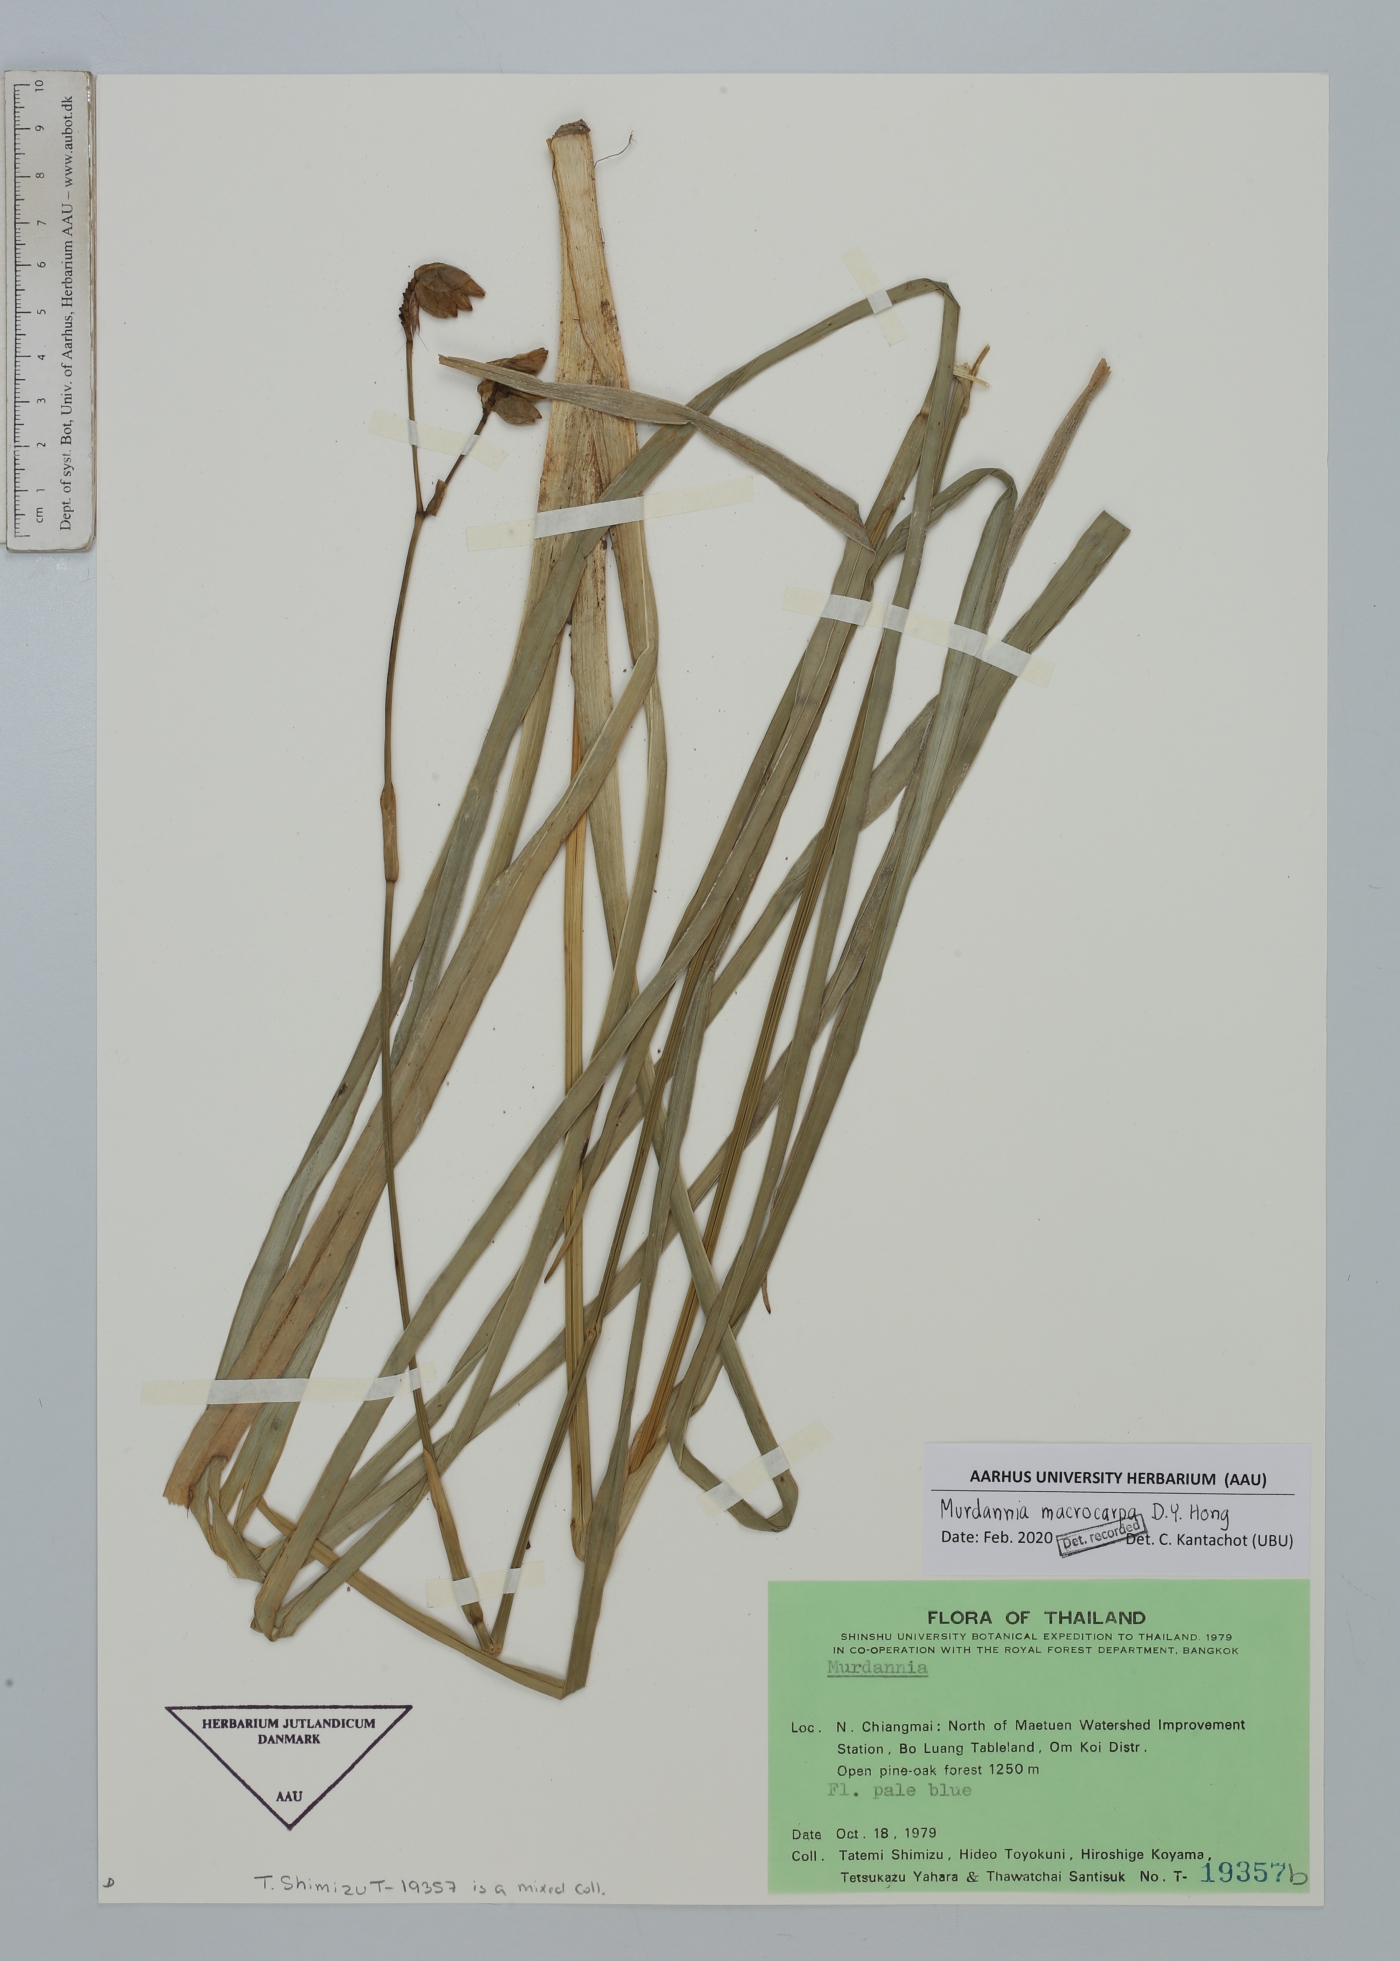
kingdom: Plantae
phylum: Tracheophyta
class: Liliopsida
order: Commelinales
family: Commelinaceae
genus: Murdannia
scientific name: Murdannia macrocarpa
